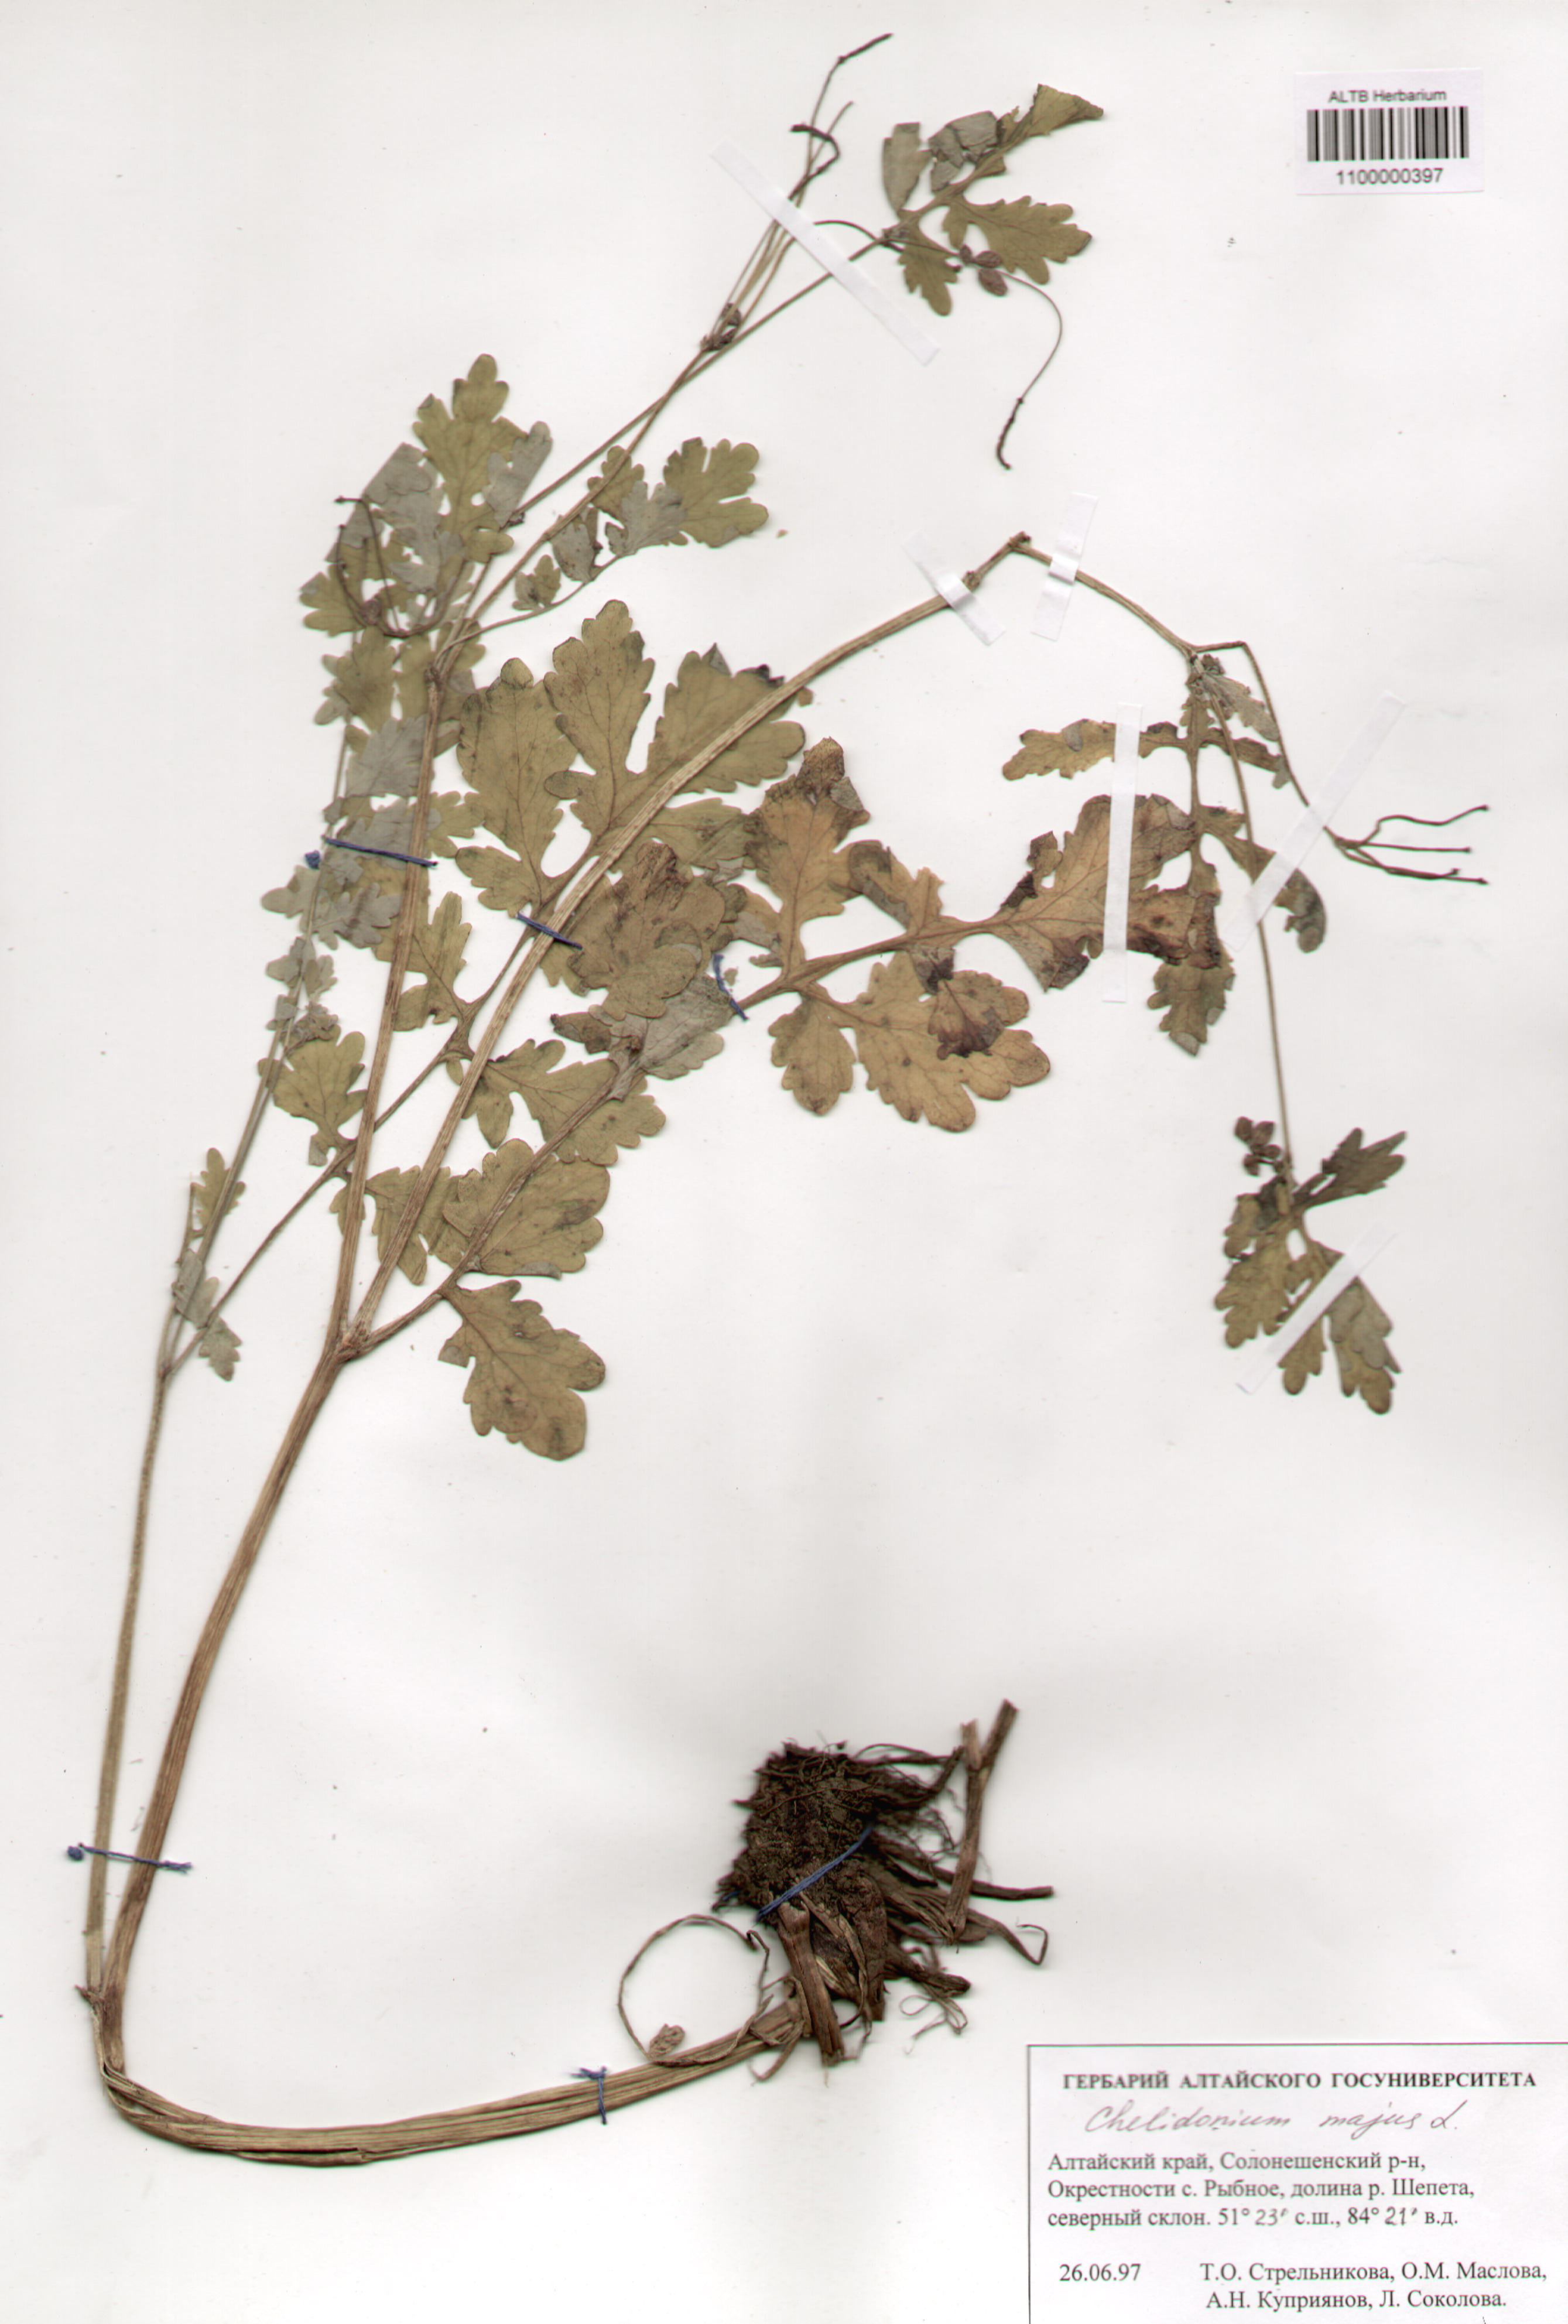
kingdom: Plantae
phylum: Tracheophyta
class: Magnoliopsida
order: Ranunculales
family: Papaveraceae
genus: Chelidonium
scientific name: Chelidonium majus
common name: Greater celandine
